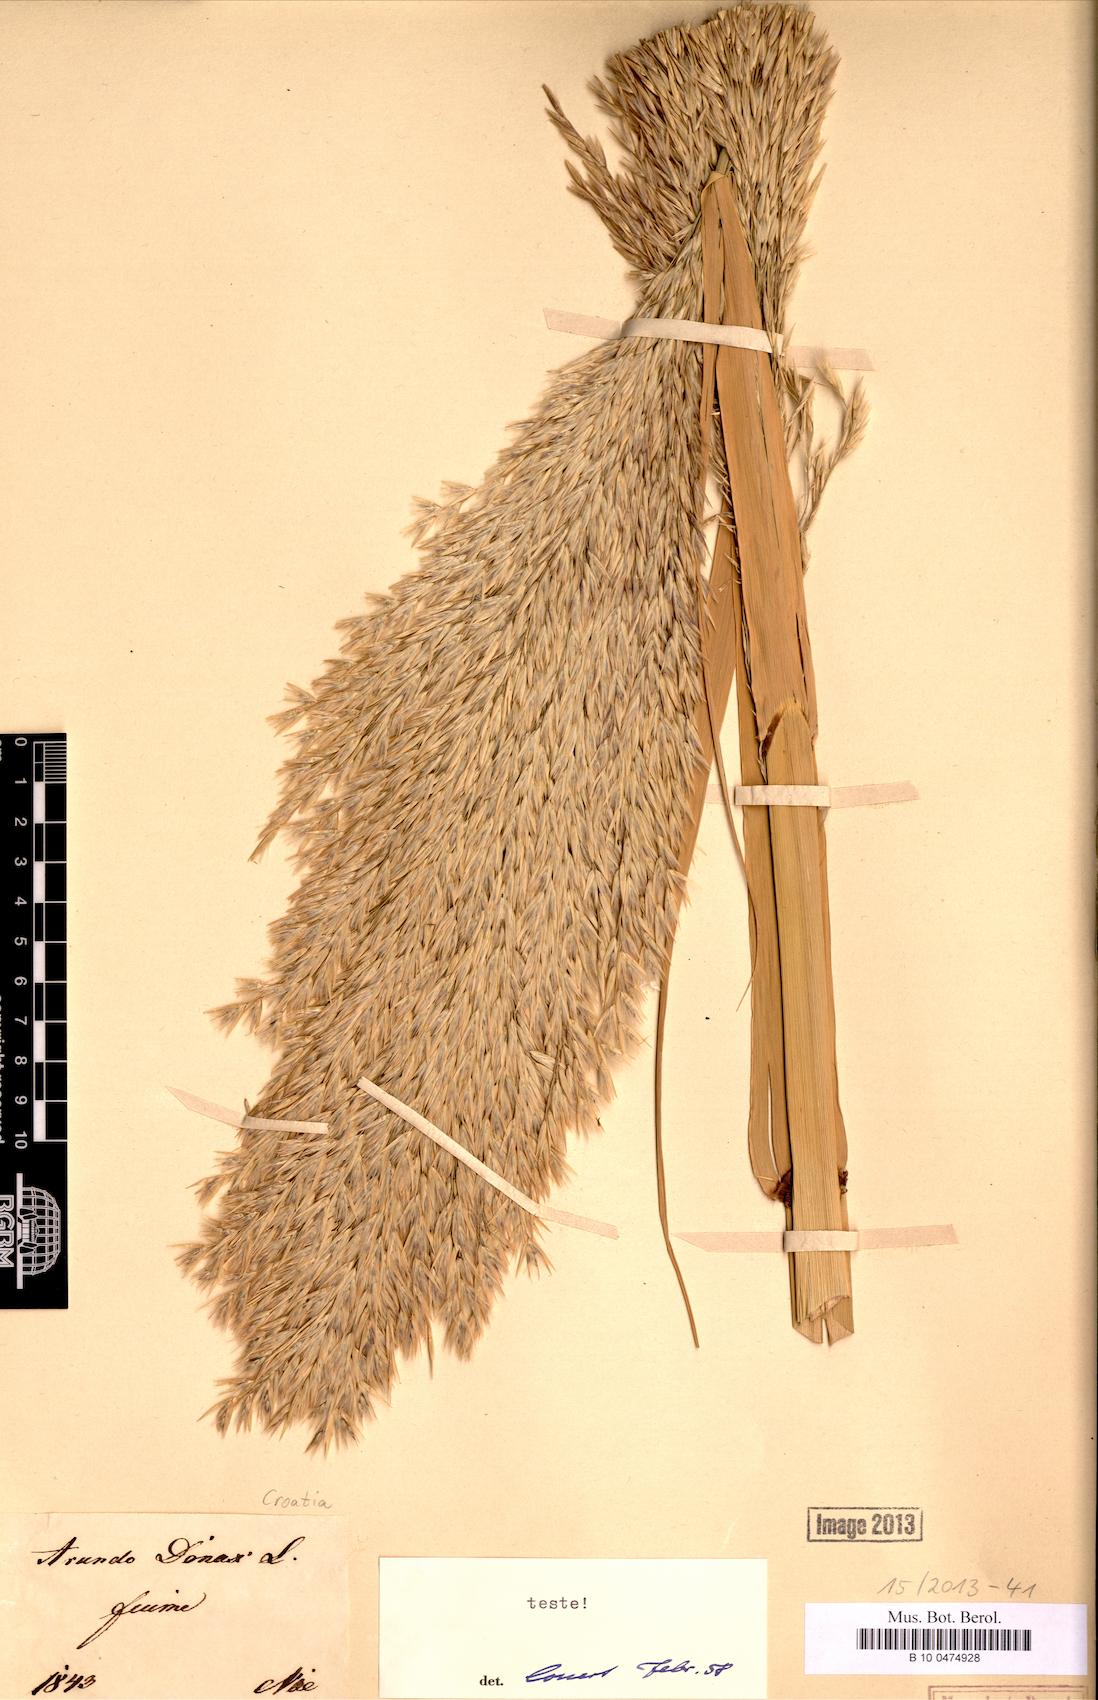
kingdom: Plantae
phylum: Tracheophyta
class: Liliopsida
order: Poales
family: Poaceae
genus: Arundo
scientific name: Arundo donax
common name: Giant reed
